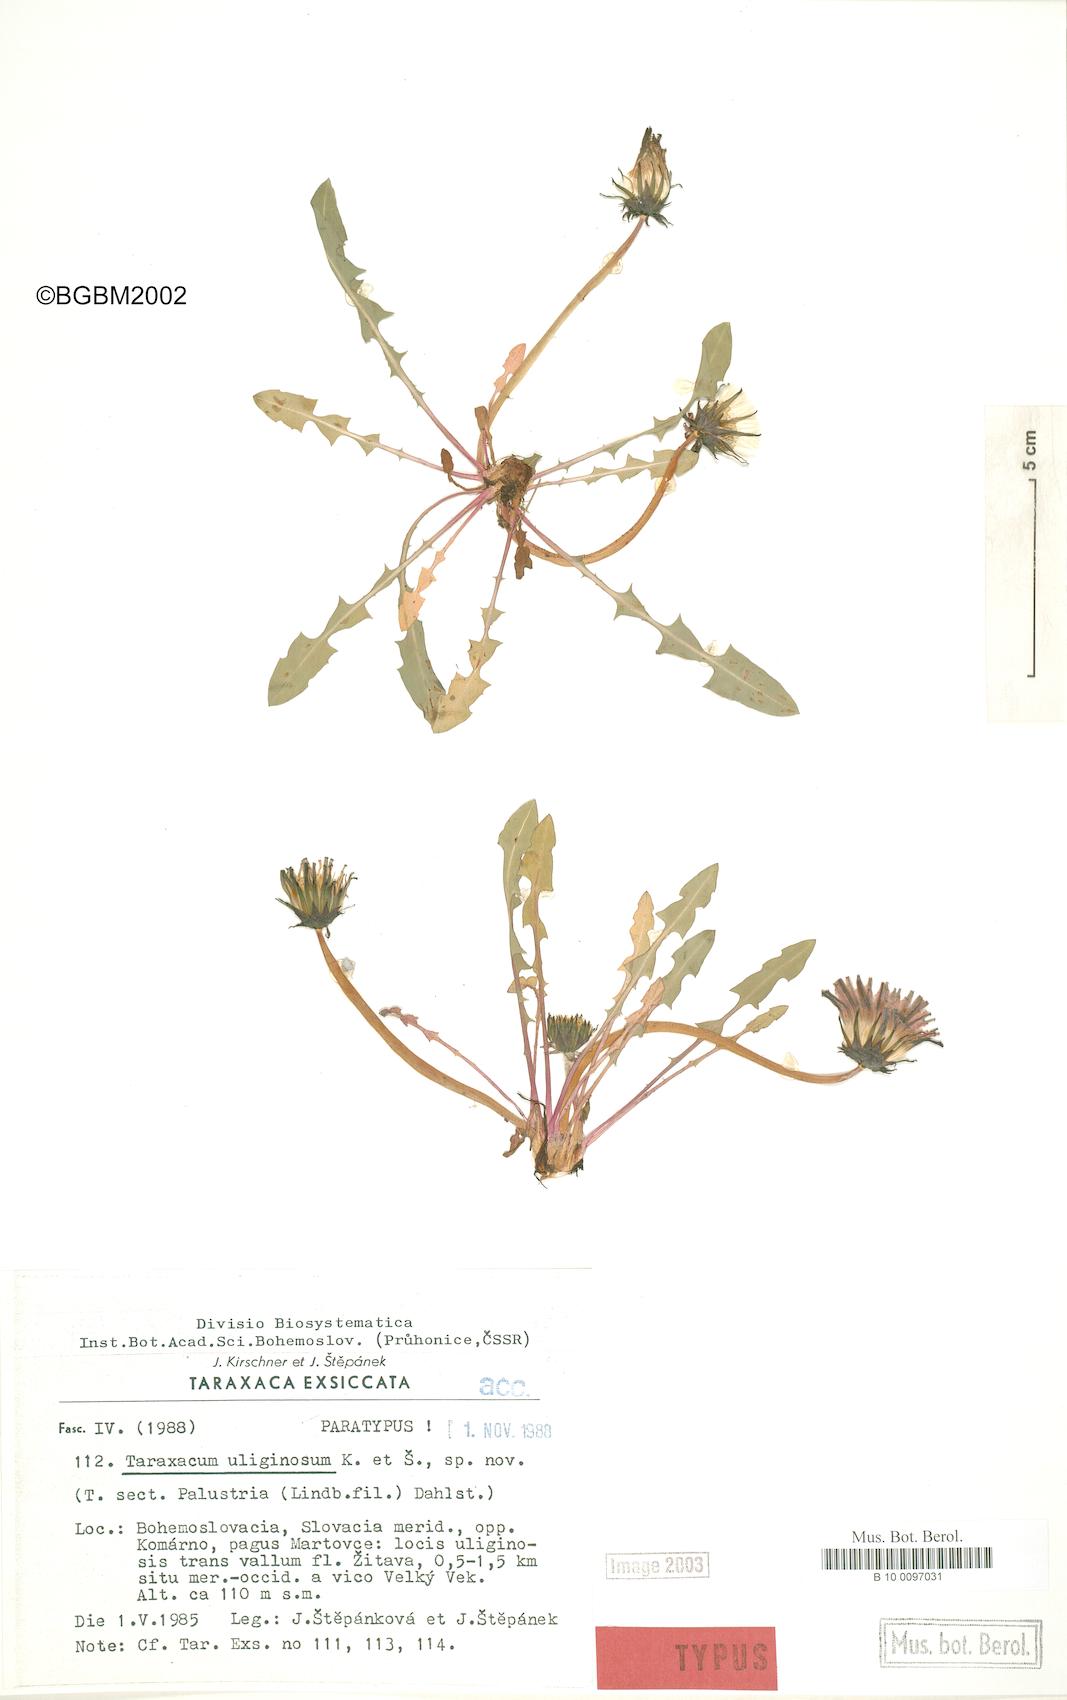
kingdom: Plantae
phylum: Tracheophyta
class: Magnoliopsida
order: Asterales
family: Asteraceae
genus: Taraxacum
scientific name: Taraxacum uliginosum
